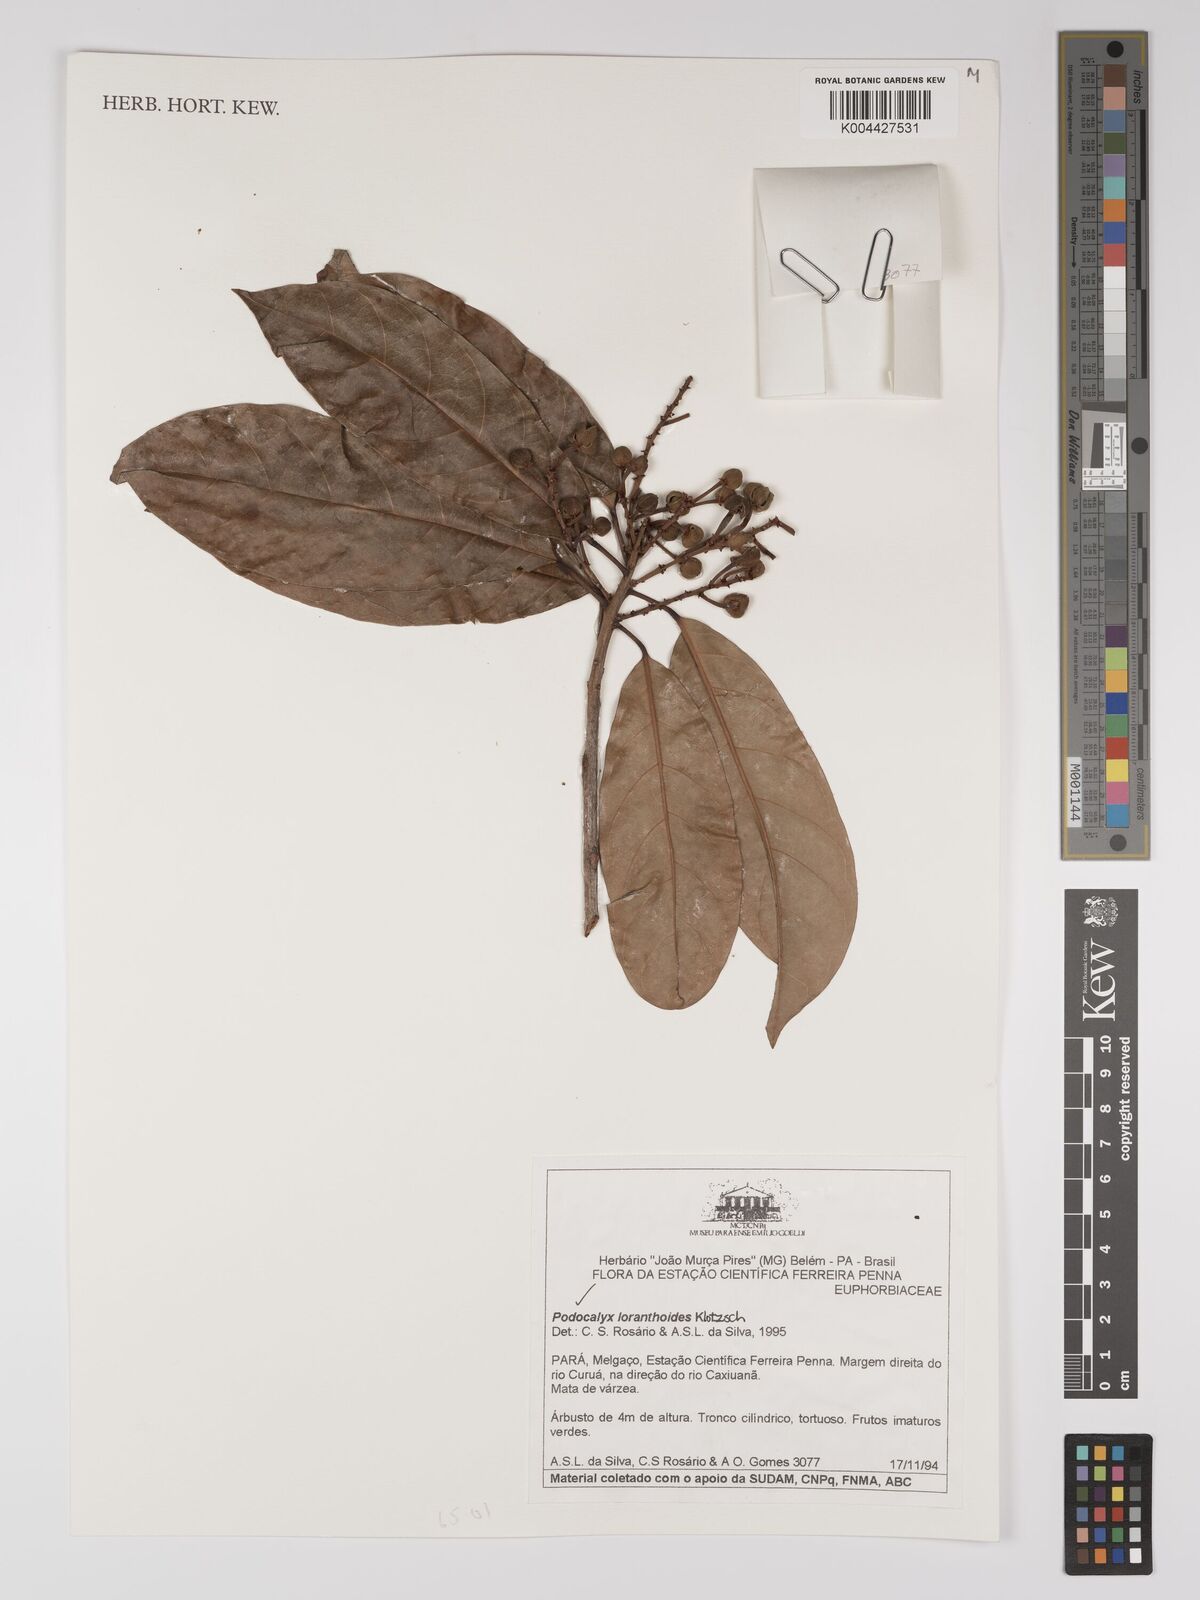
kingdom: Plantae
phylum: Tracheophyta
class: Magnoliopsida
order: Malpighiales
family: Picrodendraceae
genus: Podocalyx
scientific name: Podocalyx loranthoides
